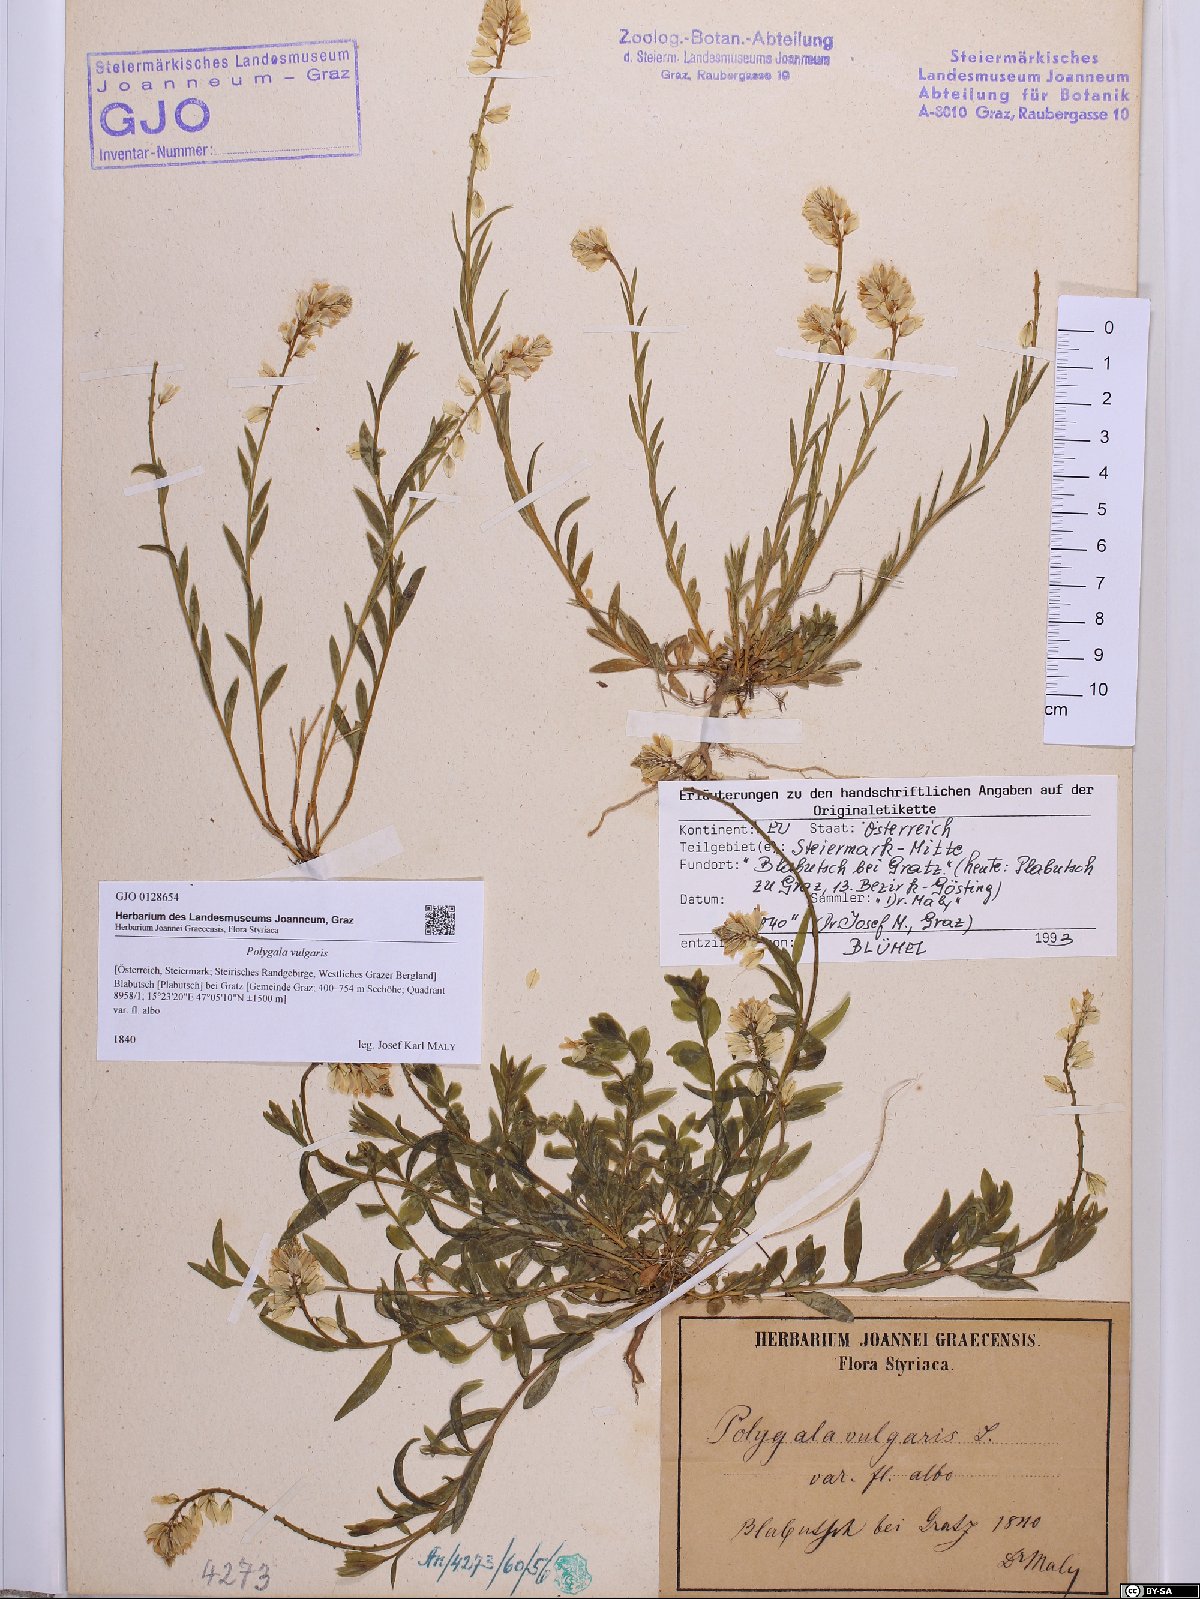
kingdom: Plantae
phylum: Tracheophyta
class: Magnoliopsida
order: Fabales
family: Polygalaceae
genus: Polygala
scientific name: Polygala vulgaris
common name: Common milkwort
